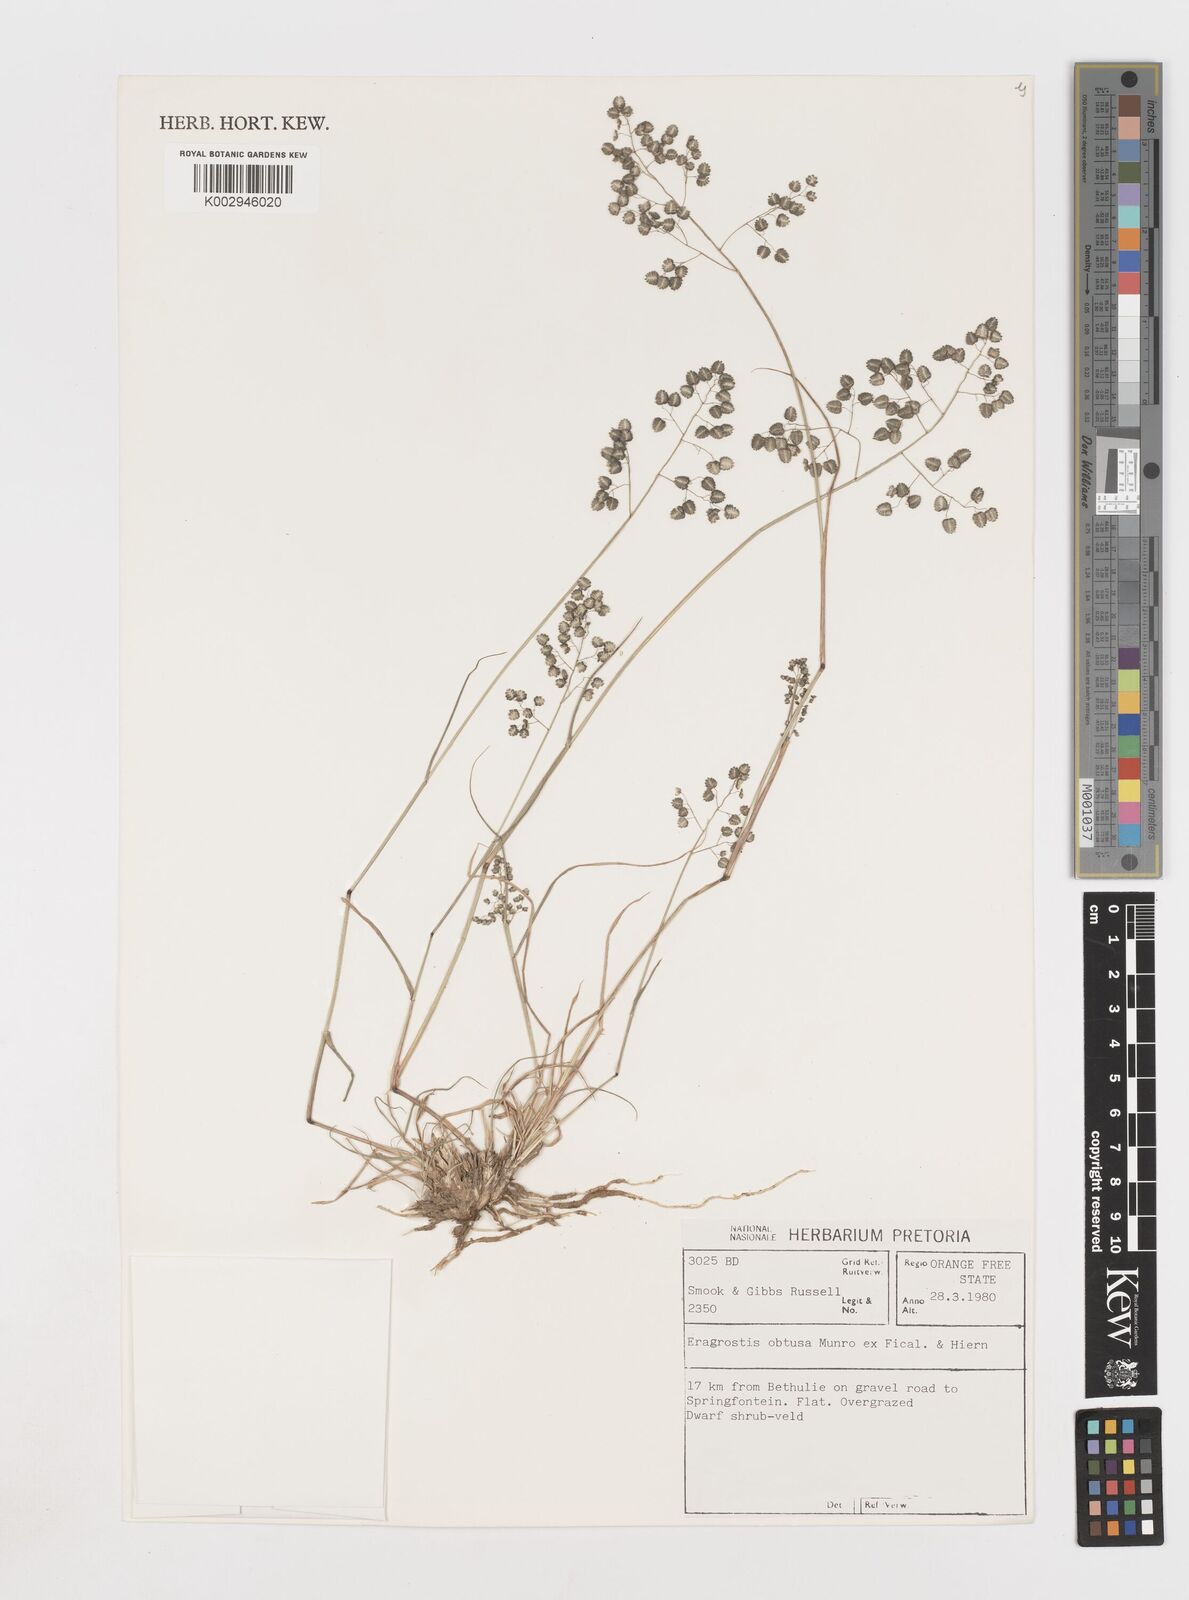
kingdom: Plantae
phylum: Tracheophyta
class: Liliopsida
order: Poales
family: Poaceae
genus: Eragrostis
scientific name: Eragrostis obtusa
